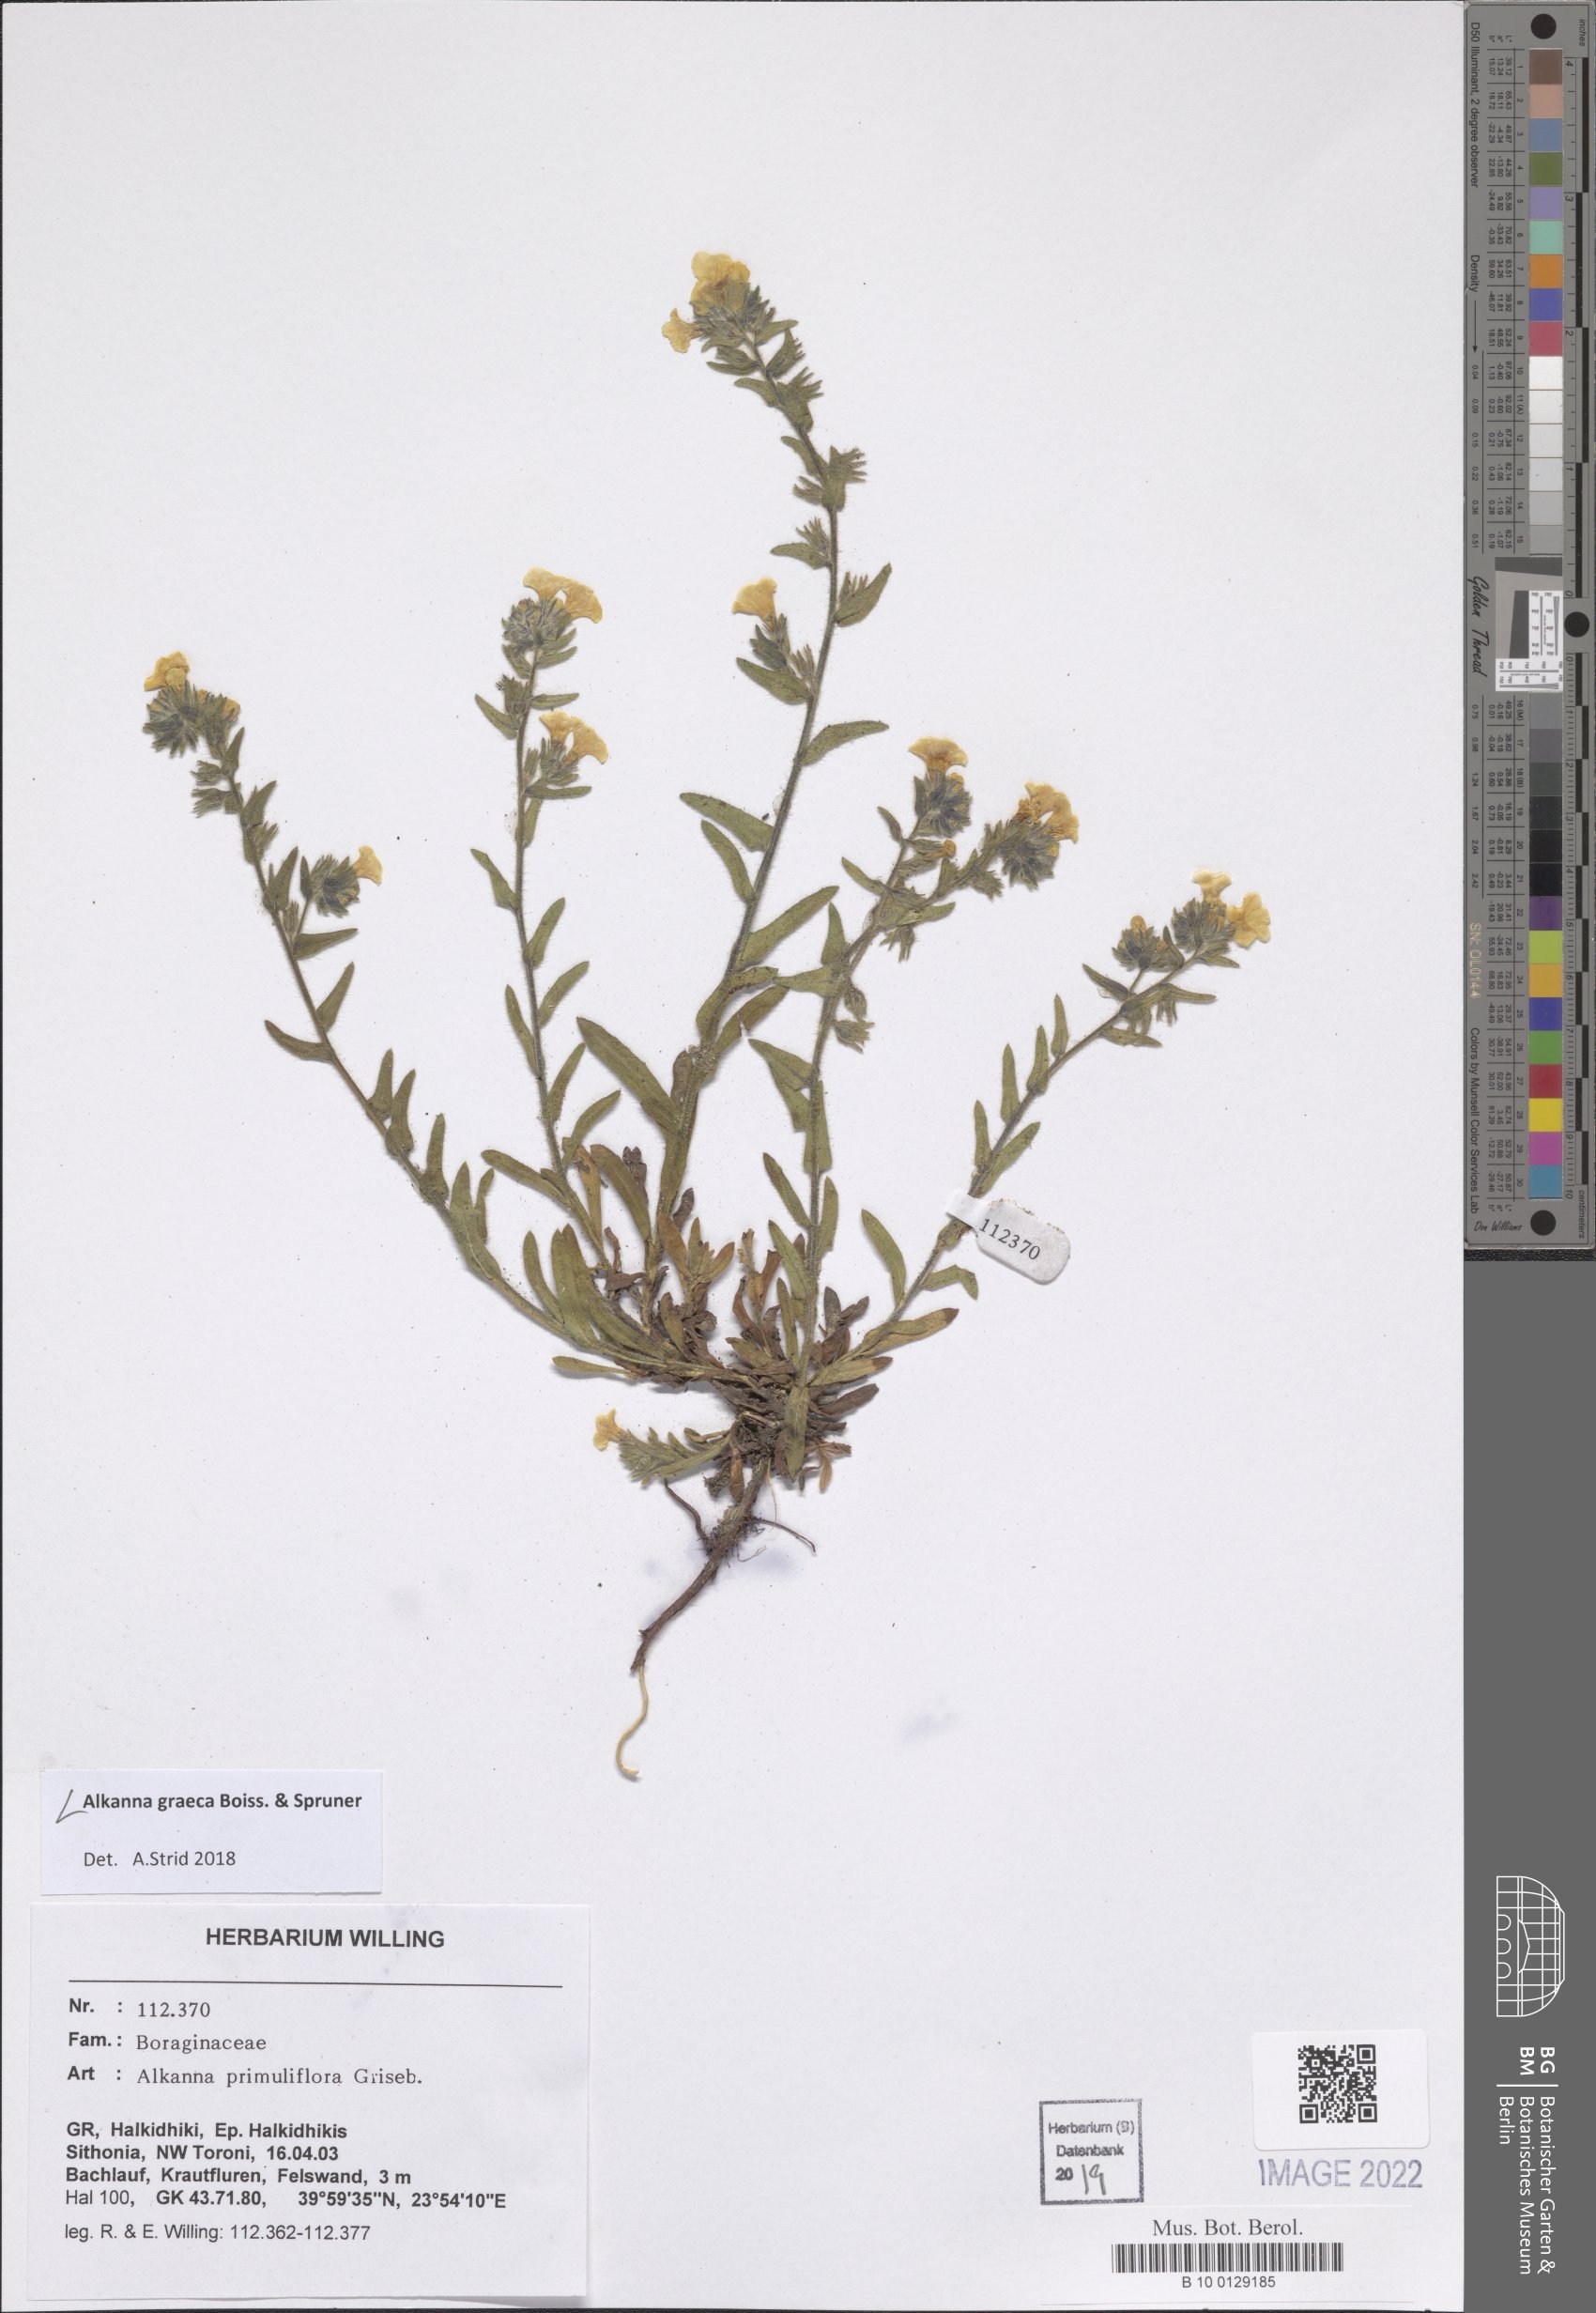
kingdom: Plantae
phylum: Tracheophyta
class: Magnoliopsida
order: Boraginales
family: Boraginaceae
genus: Alkanna
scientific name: Alkanna graeca
